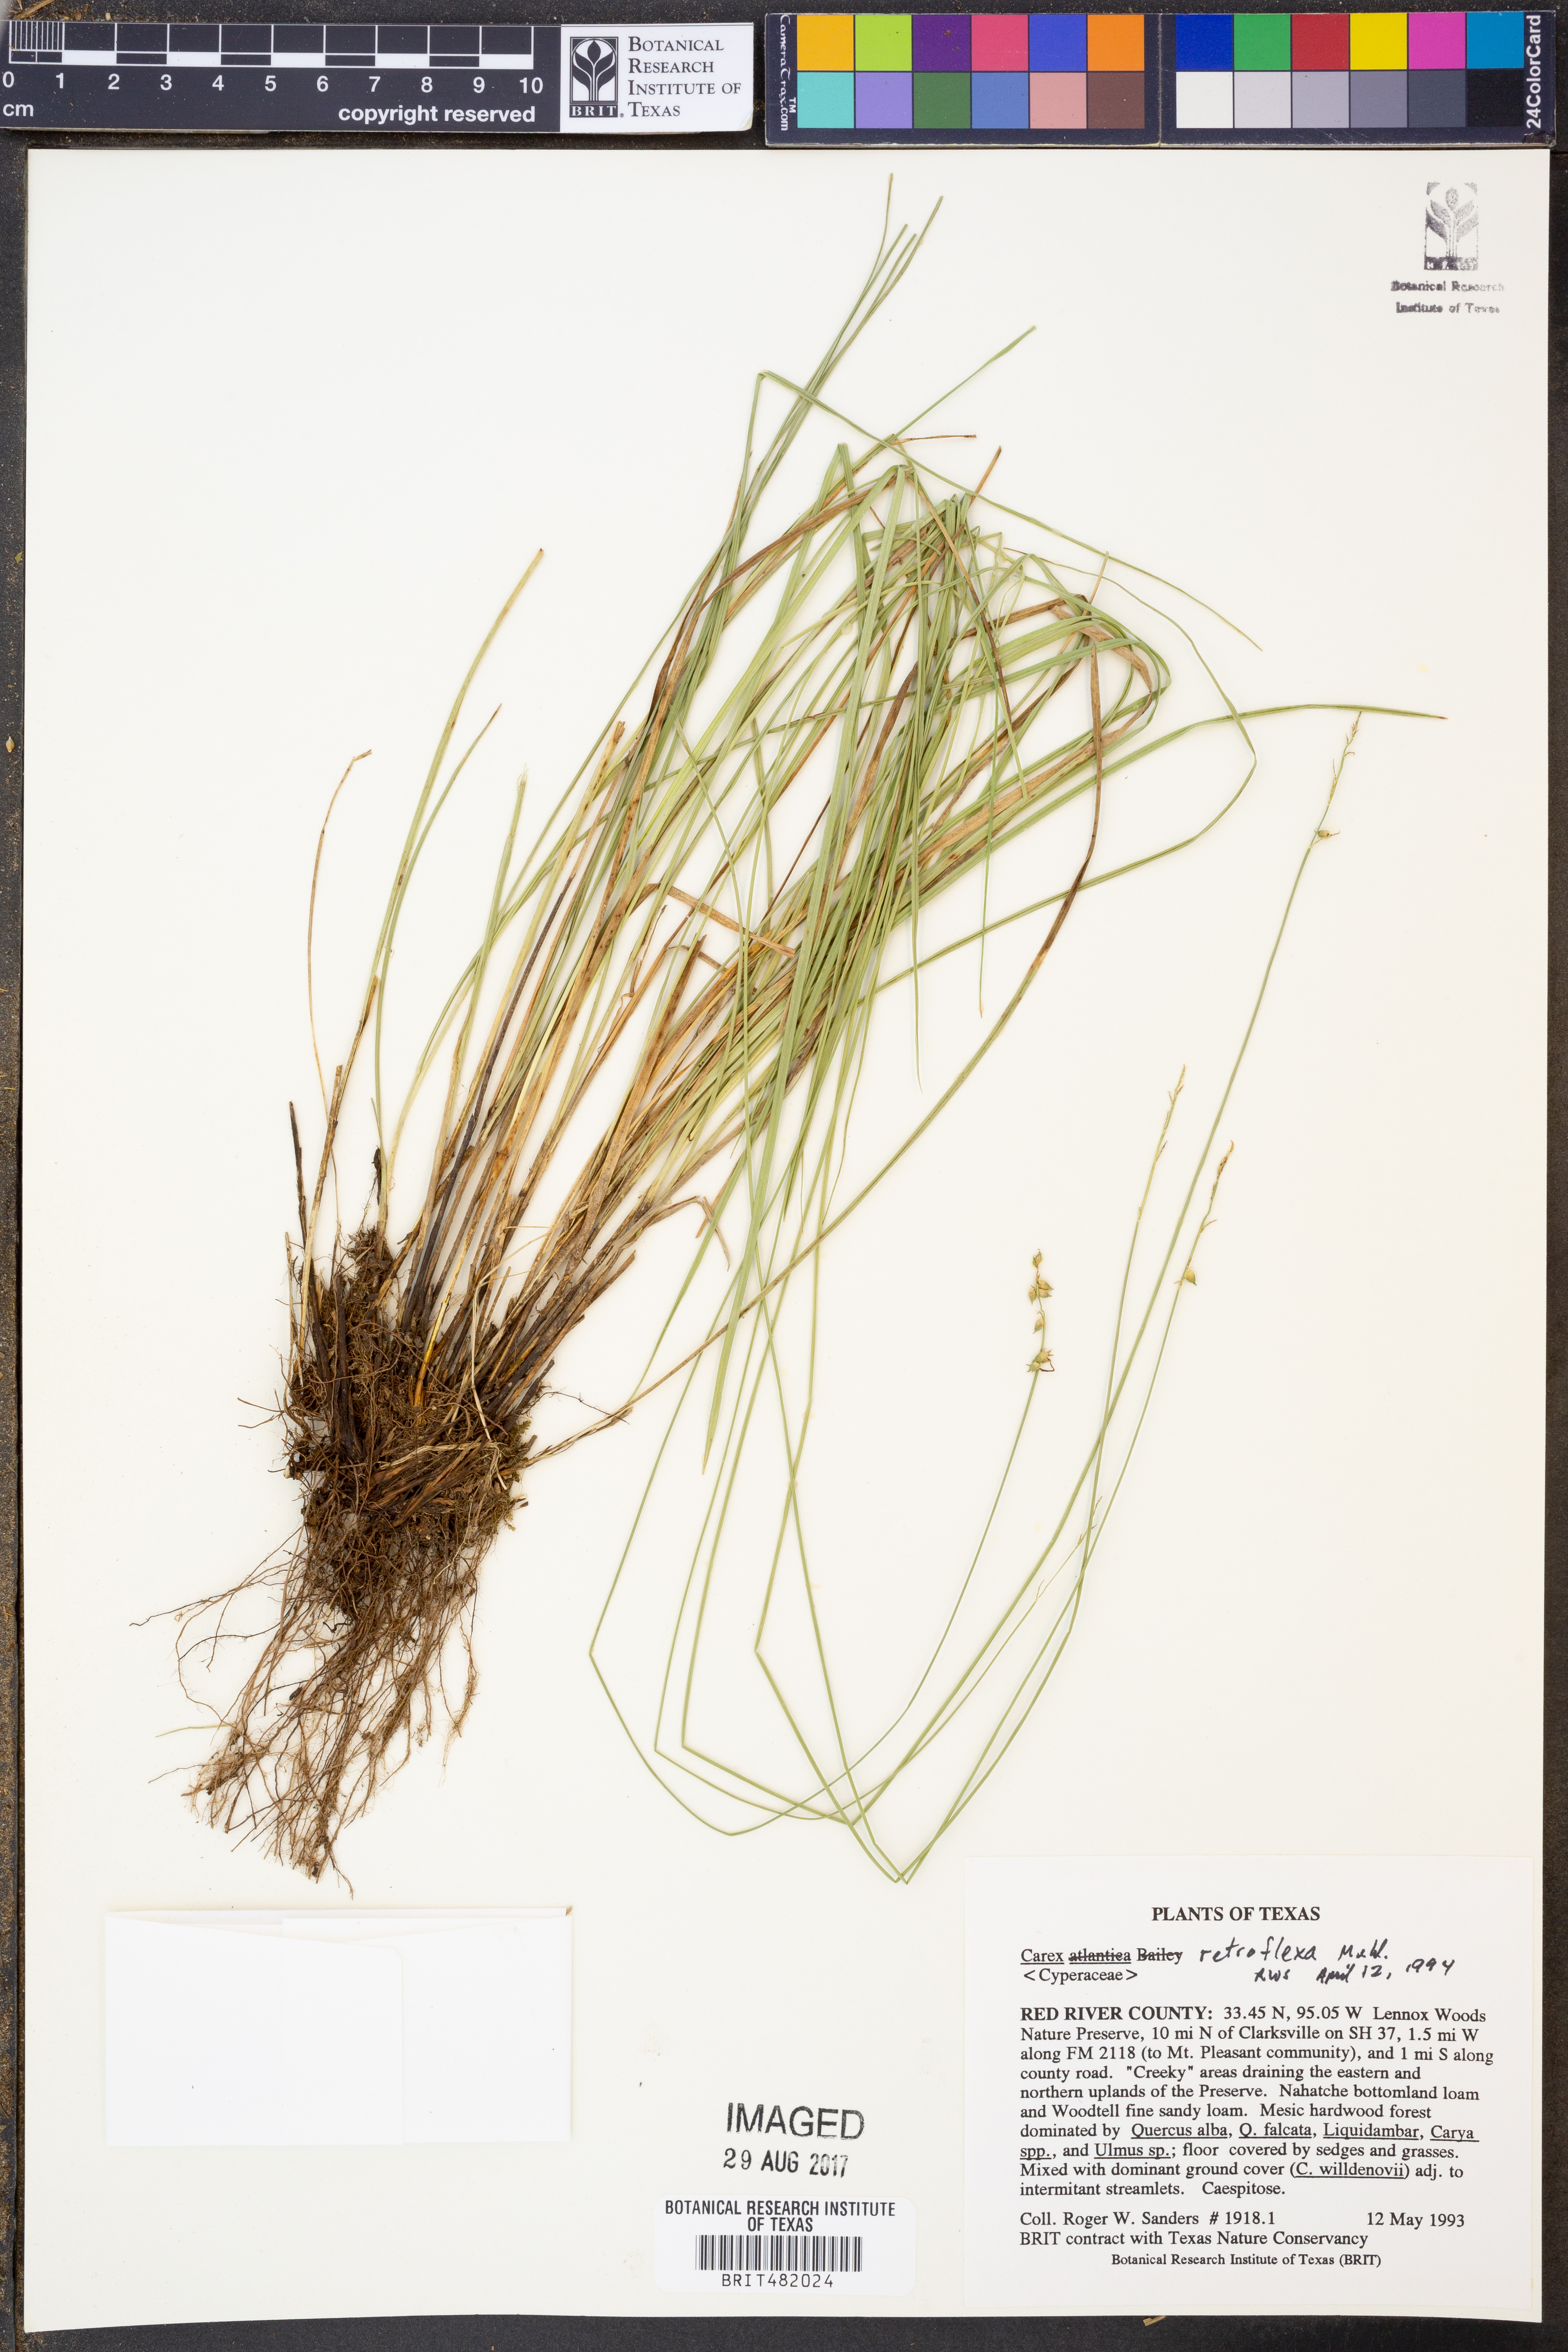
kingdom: Plantae
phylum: Tracheophyta
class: Liliopsida
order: Poales
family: Cyperaceae
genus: Carex
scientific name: Carex retroflexa
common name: Reflexed sedge
